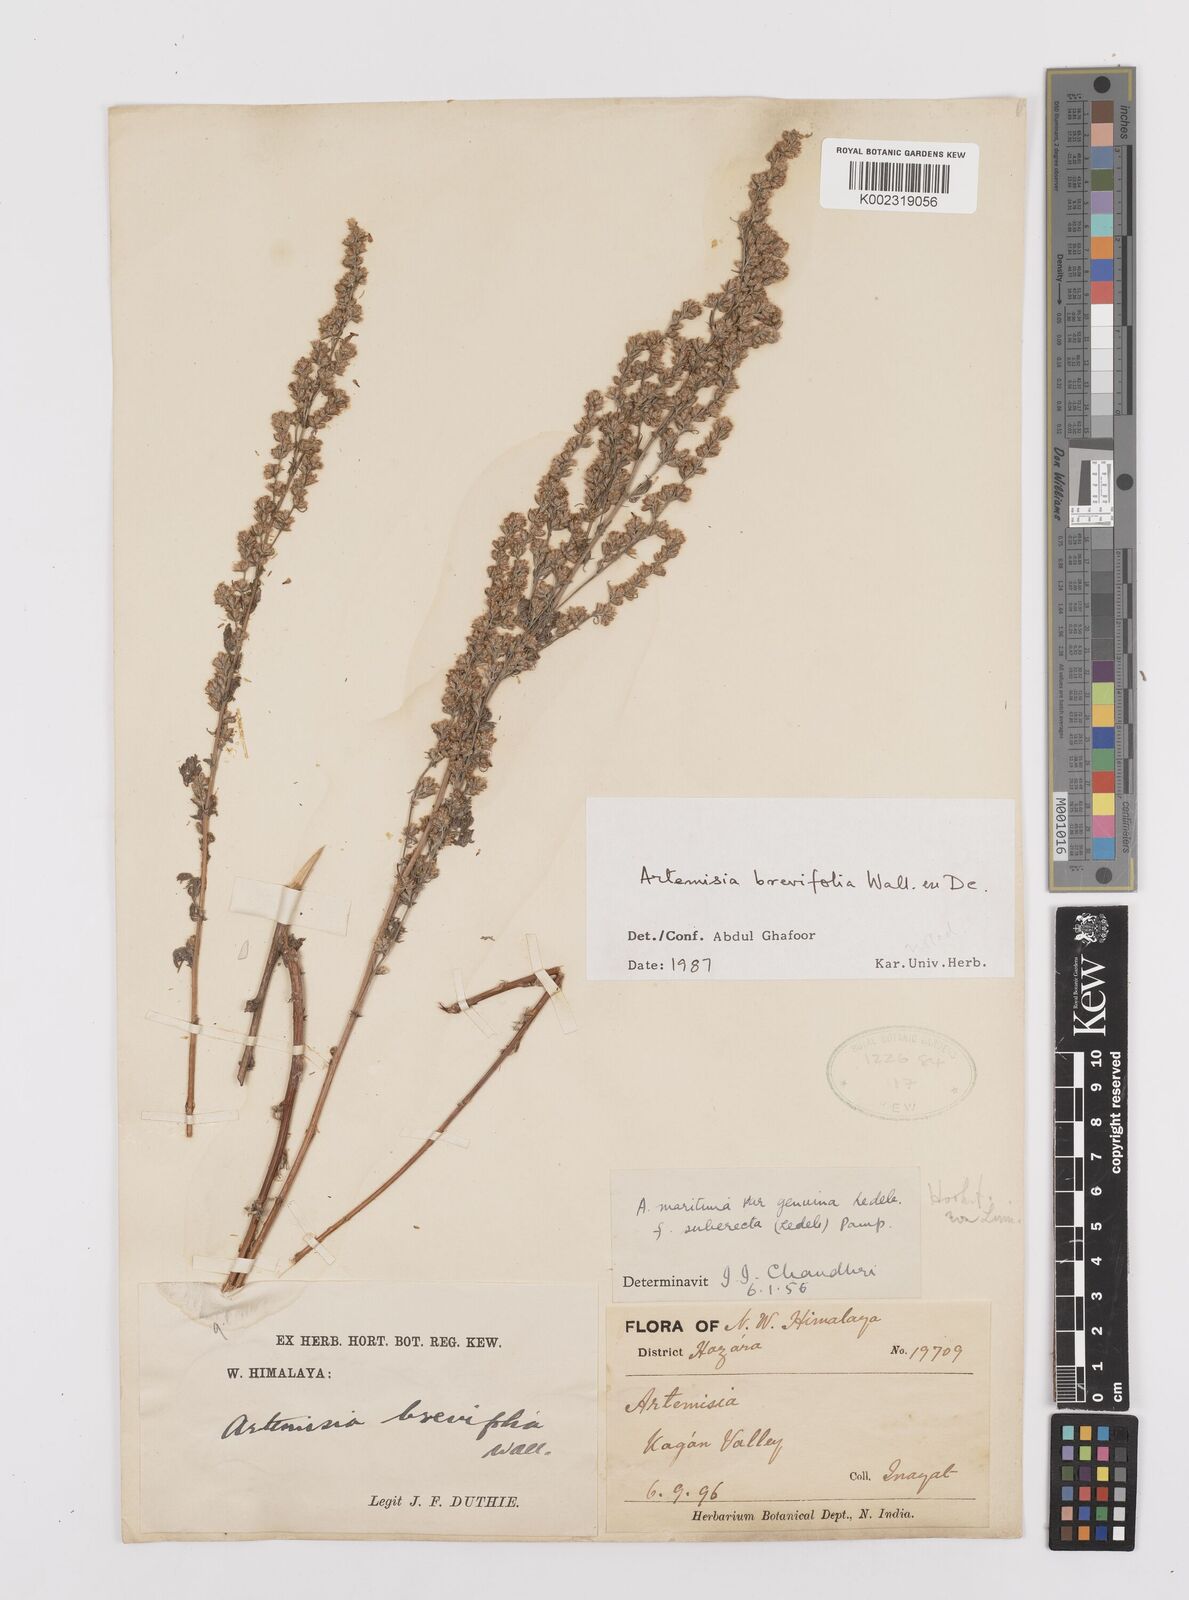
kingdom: Plantae
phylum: Tracheophyta
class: Magnoliopsida
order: Asterales
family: Asteraceae
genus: Artemisia
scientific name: Artemisia brevifolia
